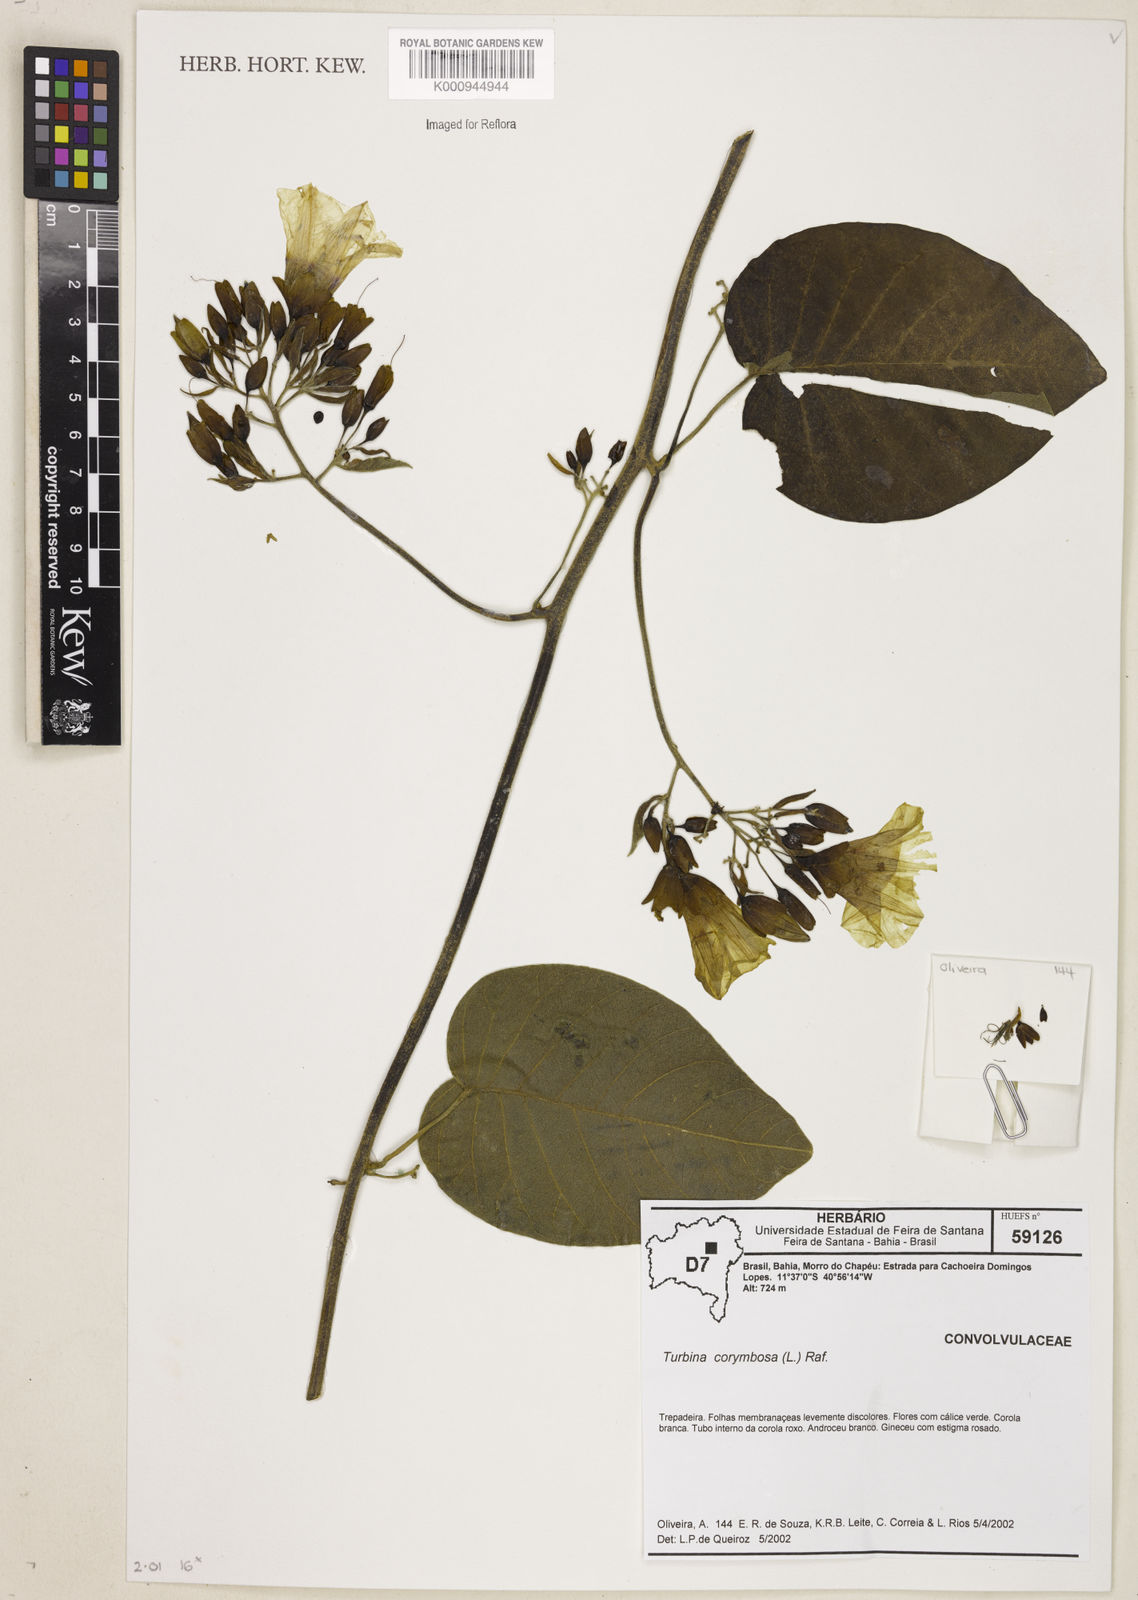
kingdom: Plantae
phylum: Tracheophyta
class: Magnoliopsida
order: Solanales
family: Convolvulaceae
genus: Ipomoea
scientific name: Ipomoea abutiloides
